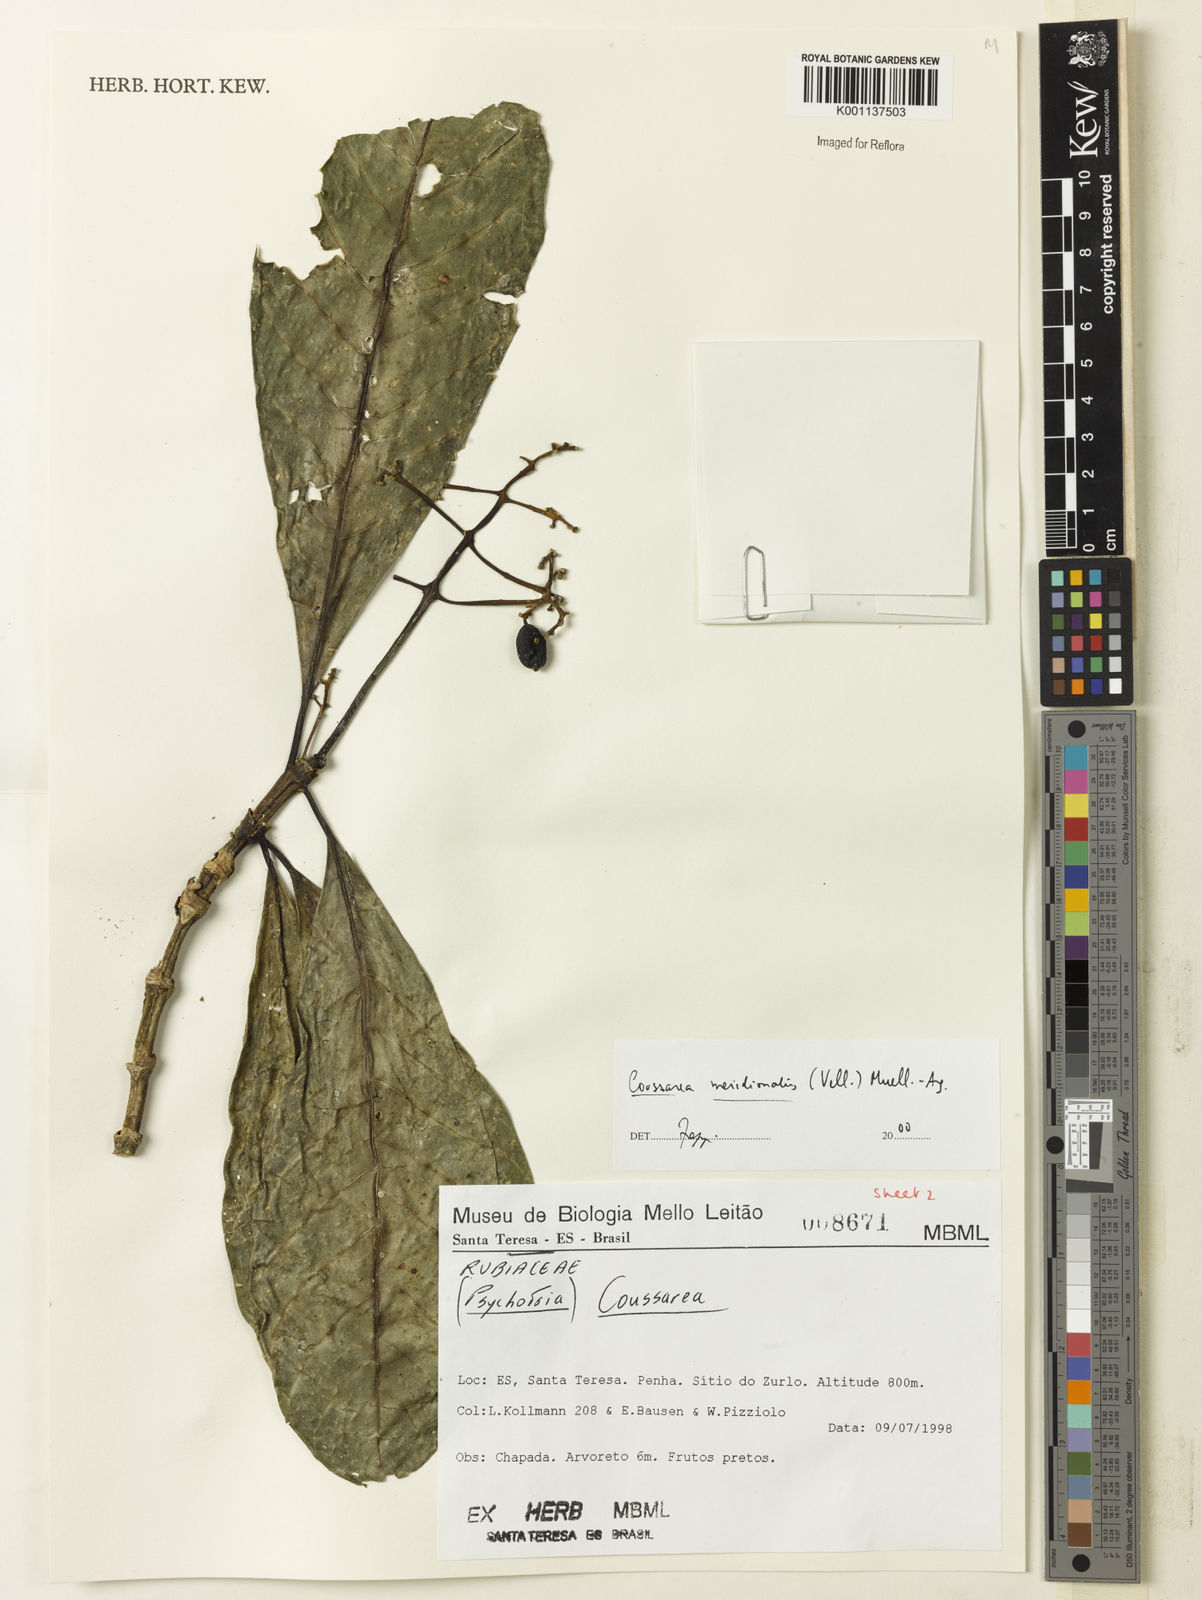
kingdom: Plantae
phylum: Tracheophyta
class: Magnoliopsida
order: Gentianales
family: Rubiaceae
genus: Coussarea
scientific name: Coussarea
